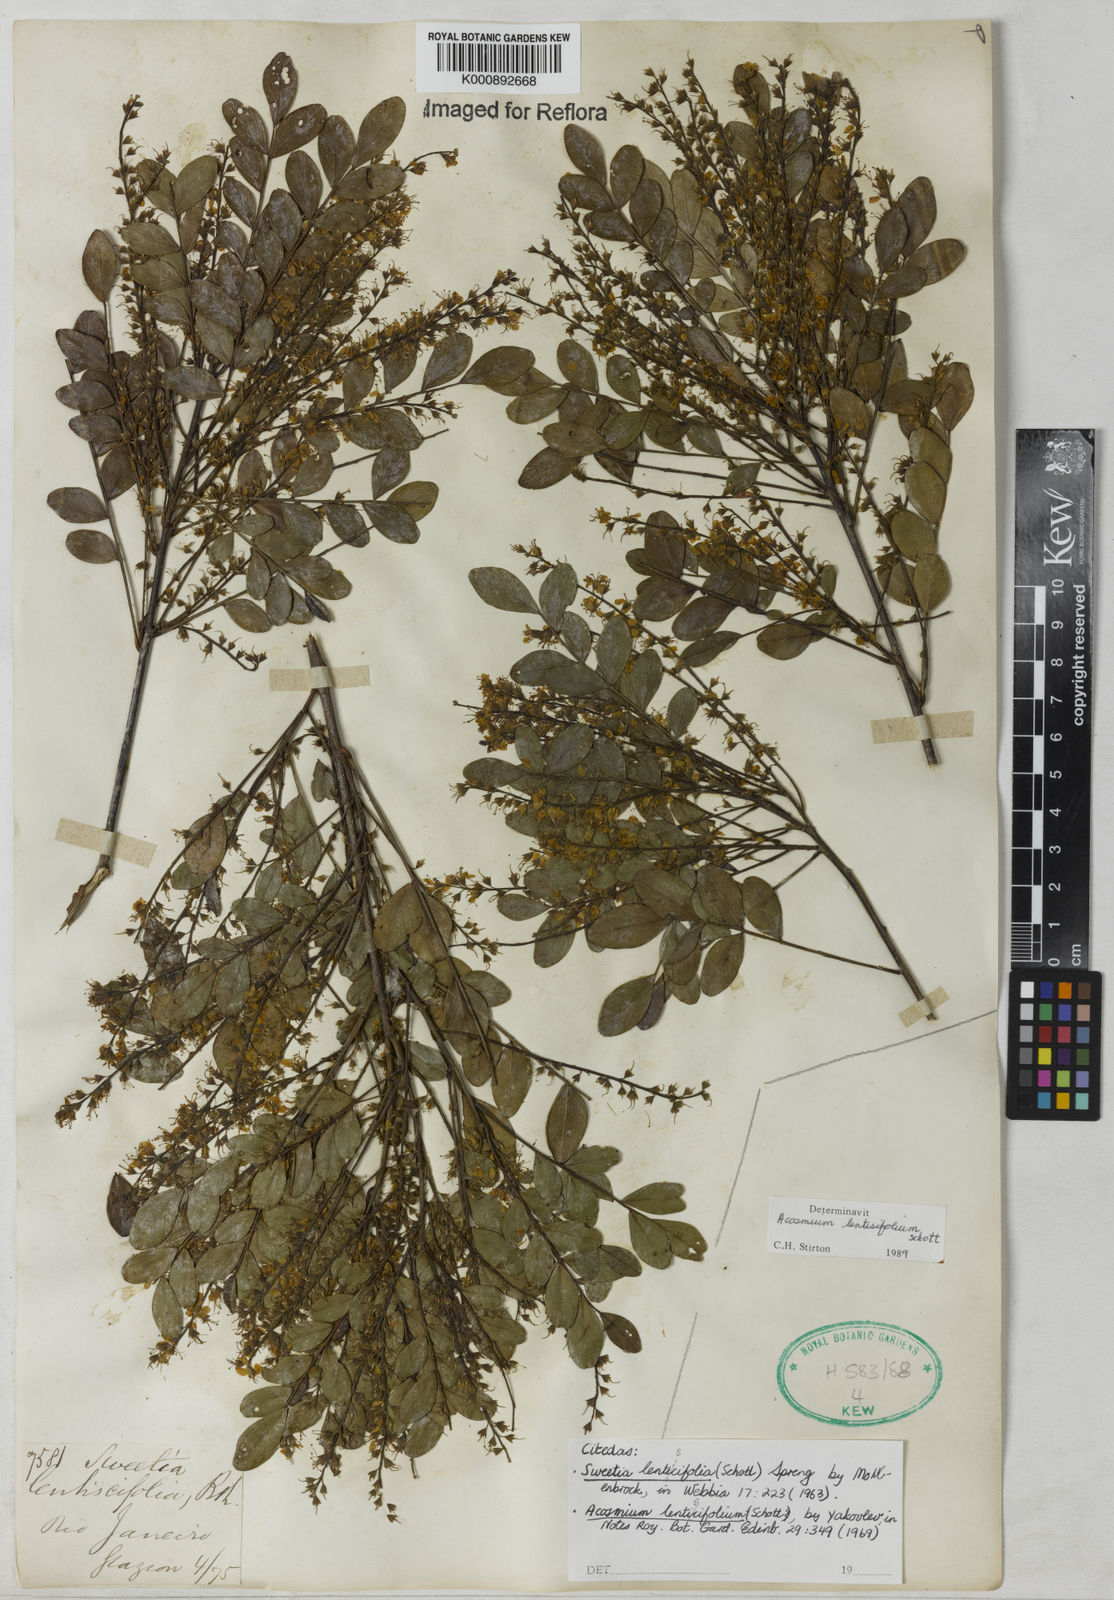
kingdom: Plantae
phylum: Tracheophyta
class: Magnoliopsida
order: Fabales
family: Fabaceae
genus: Acosmium
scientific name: Acosmium lentiscifolium
